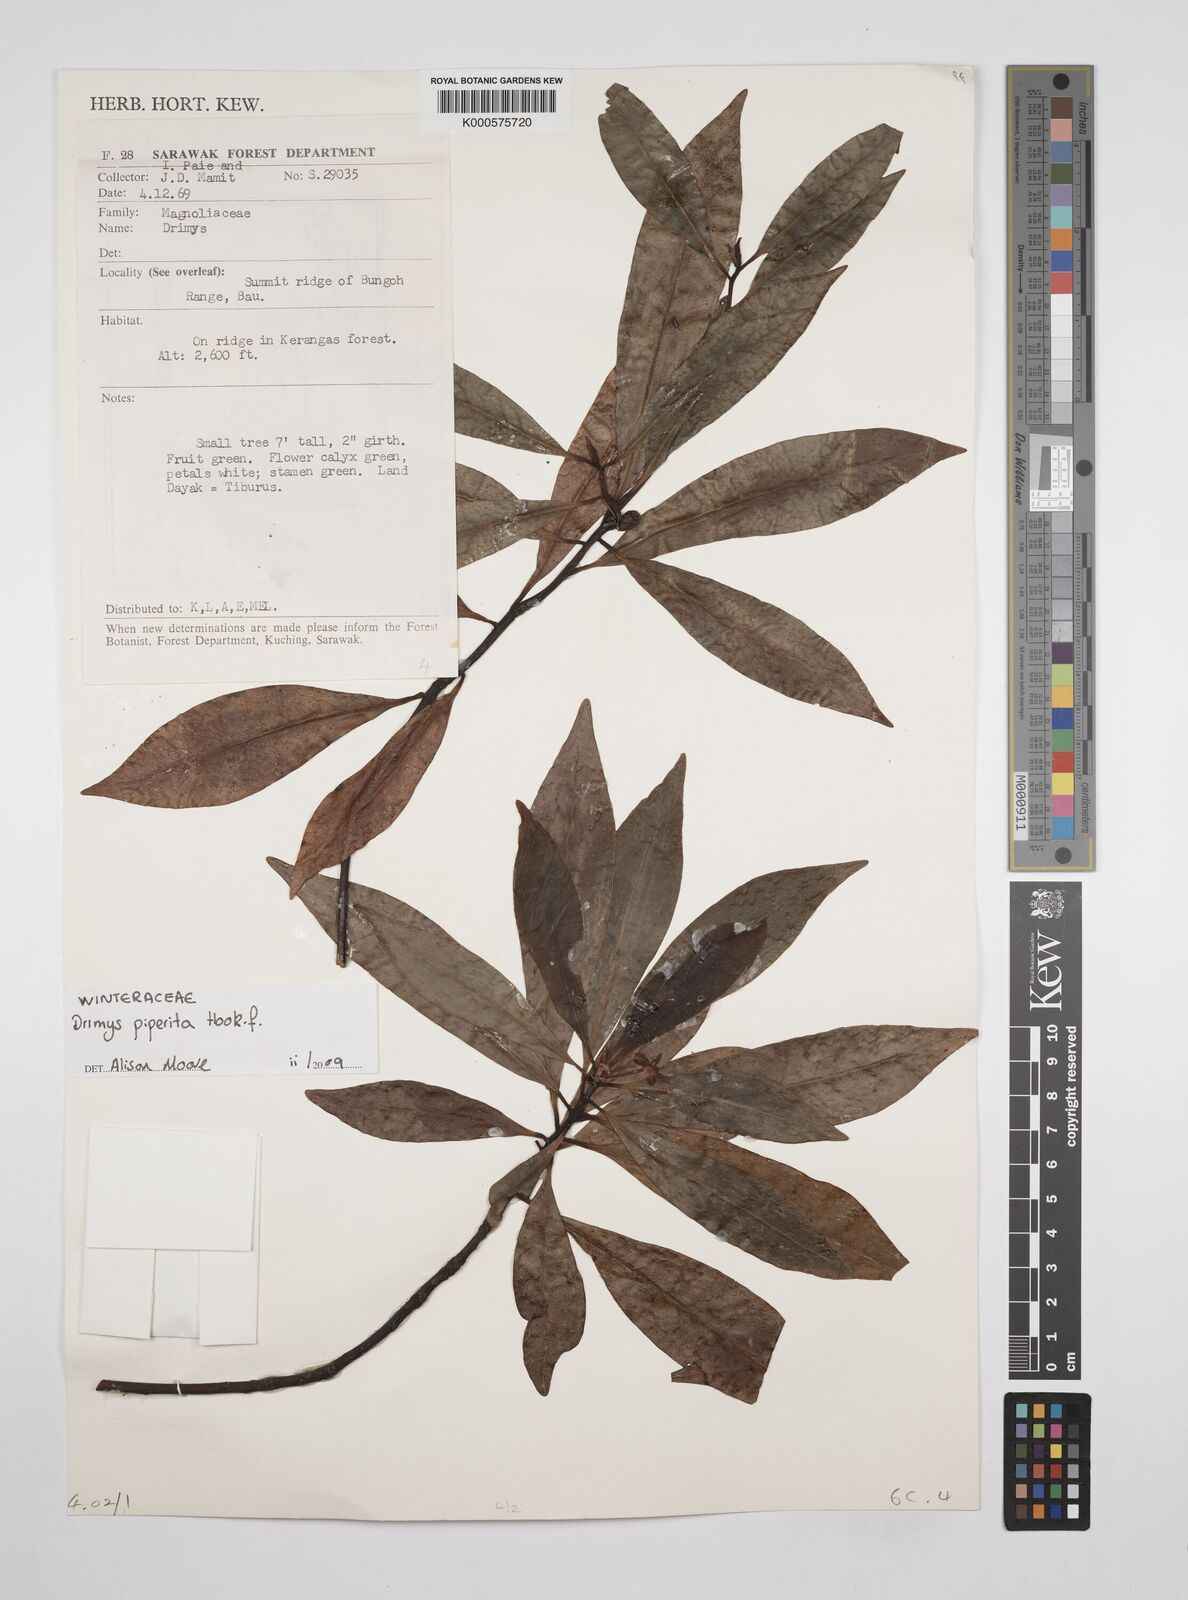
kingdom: Plantae
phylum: Tracheophyta
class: Magnoliopsida
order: Canellales
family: Winteraceae
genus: Drimys
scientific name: Drimys piperita
